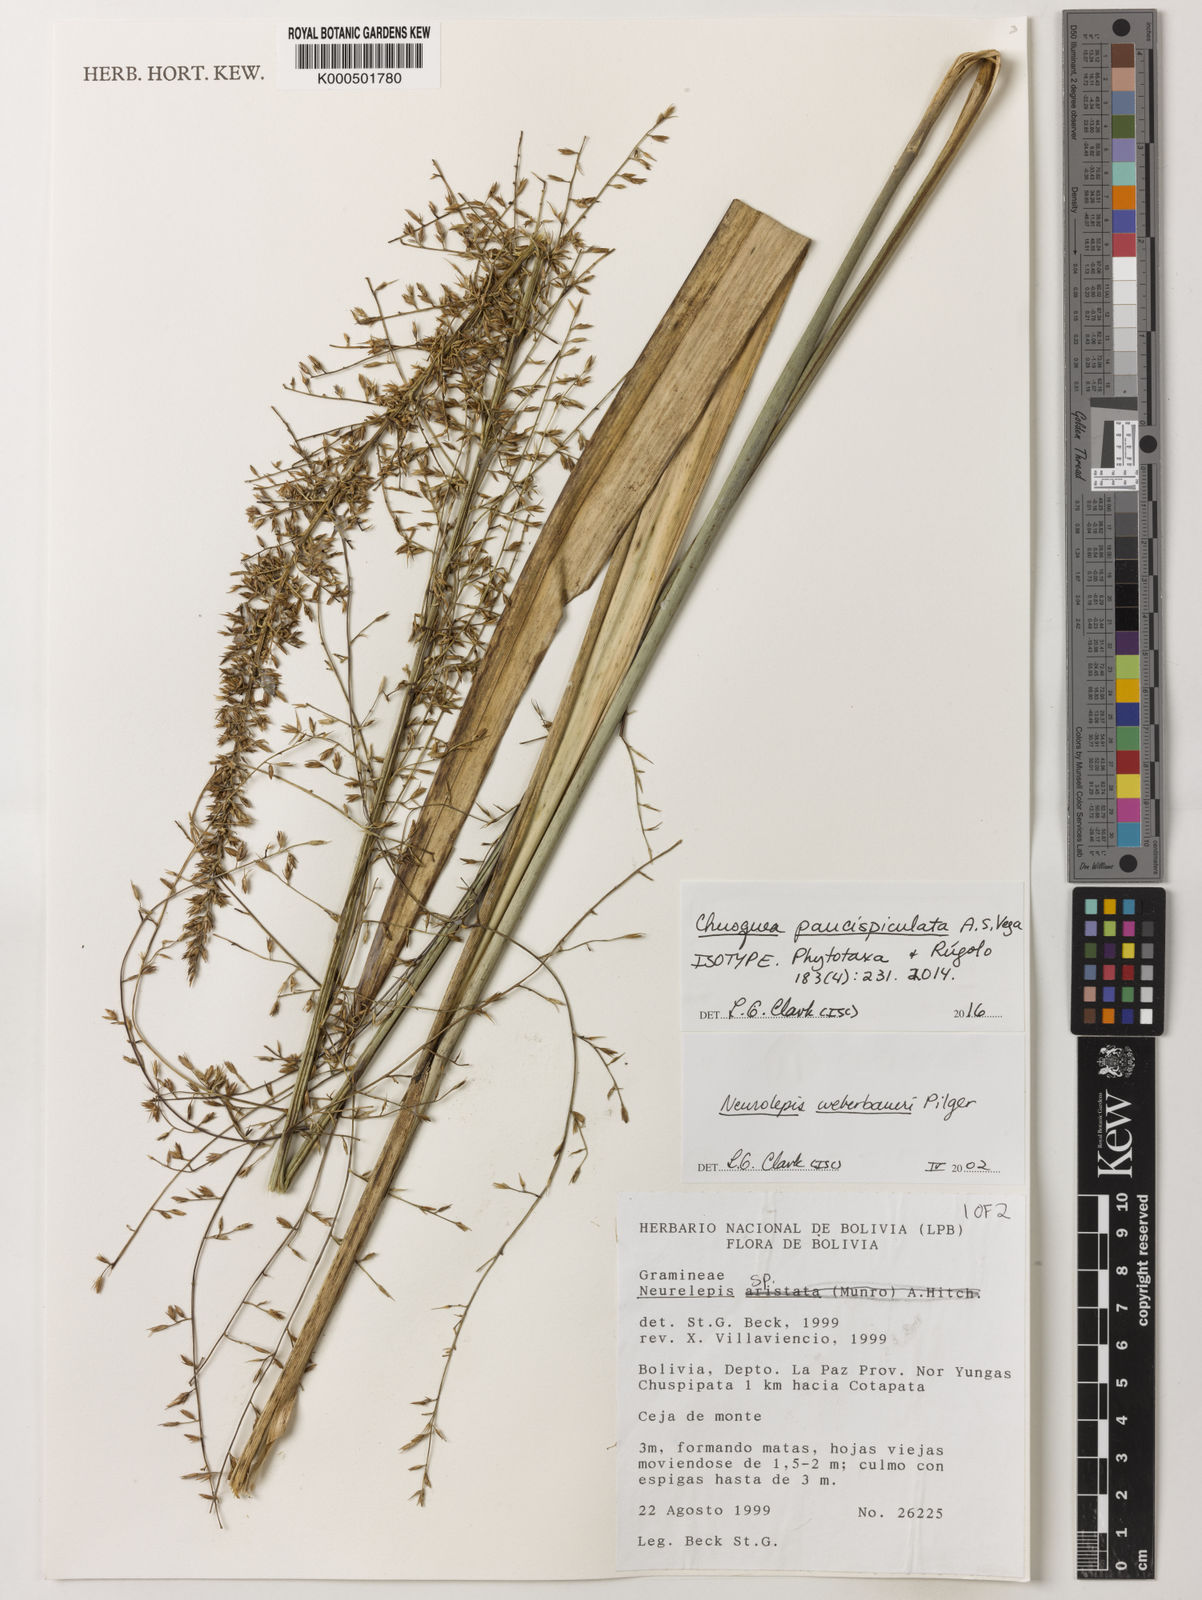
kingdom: Plantae
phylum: Tracheophyta
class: Liliopsida
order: Poales
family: Poaceae
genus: Chusquea
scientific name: Chusquea
